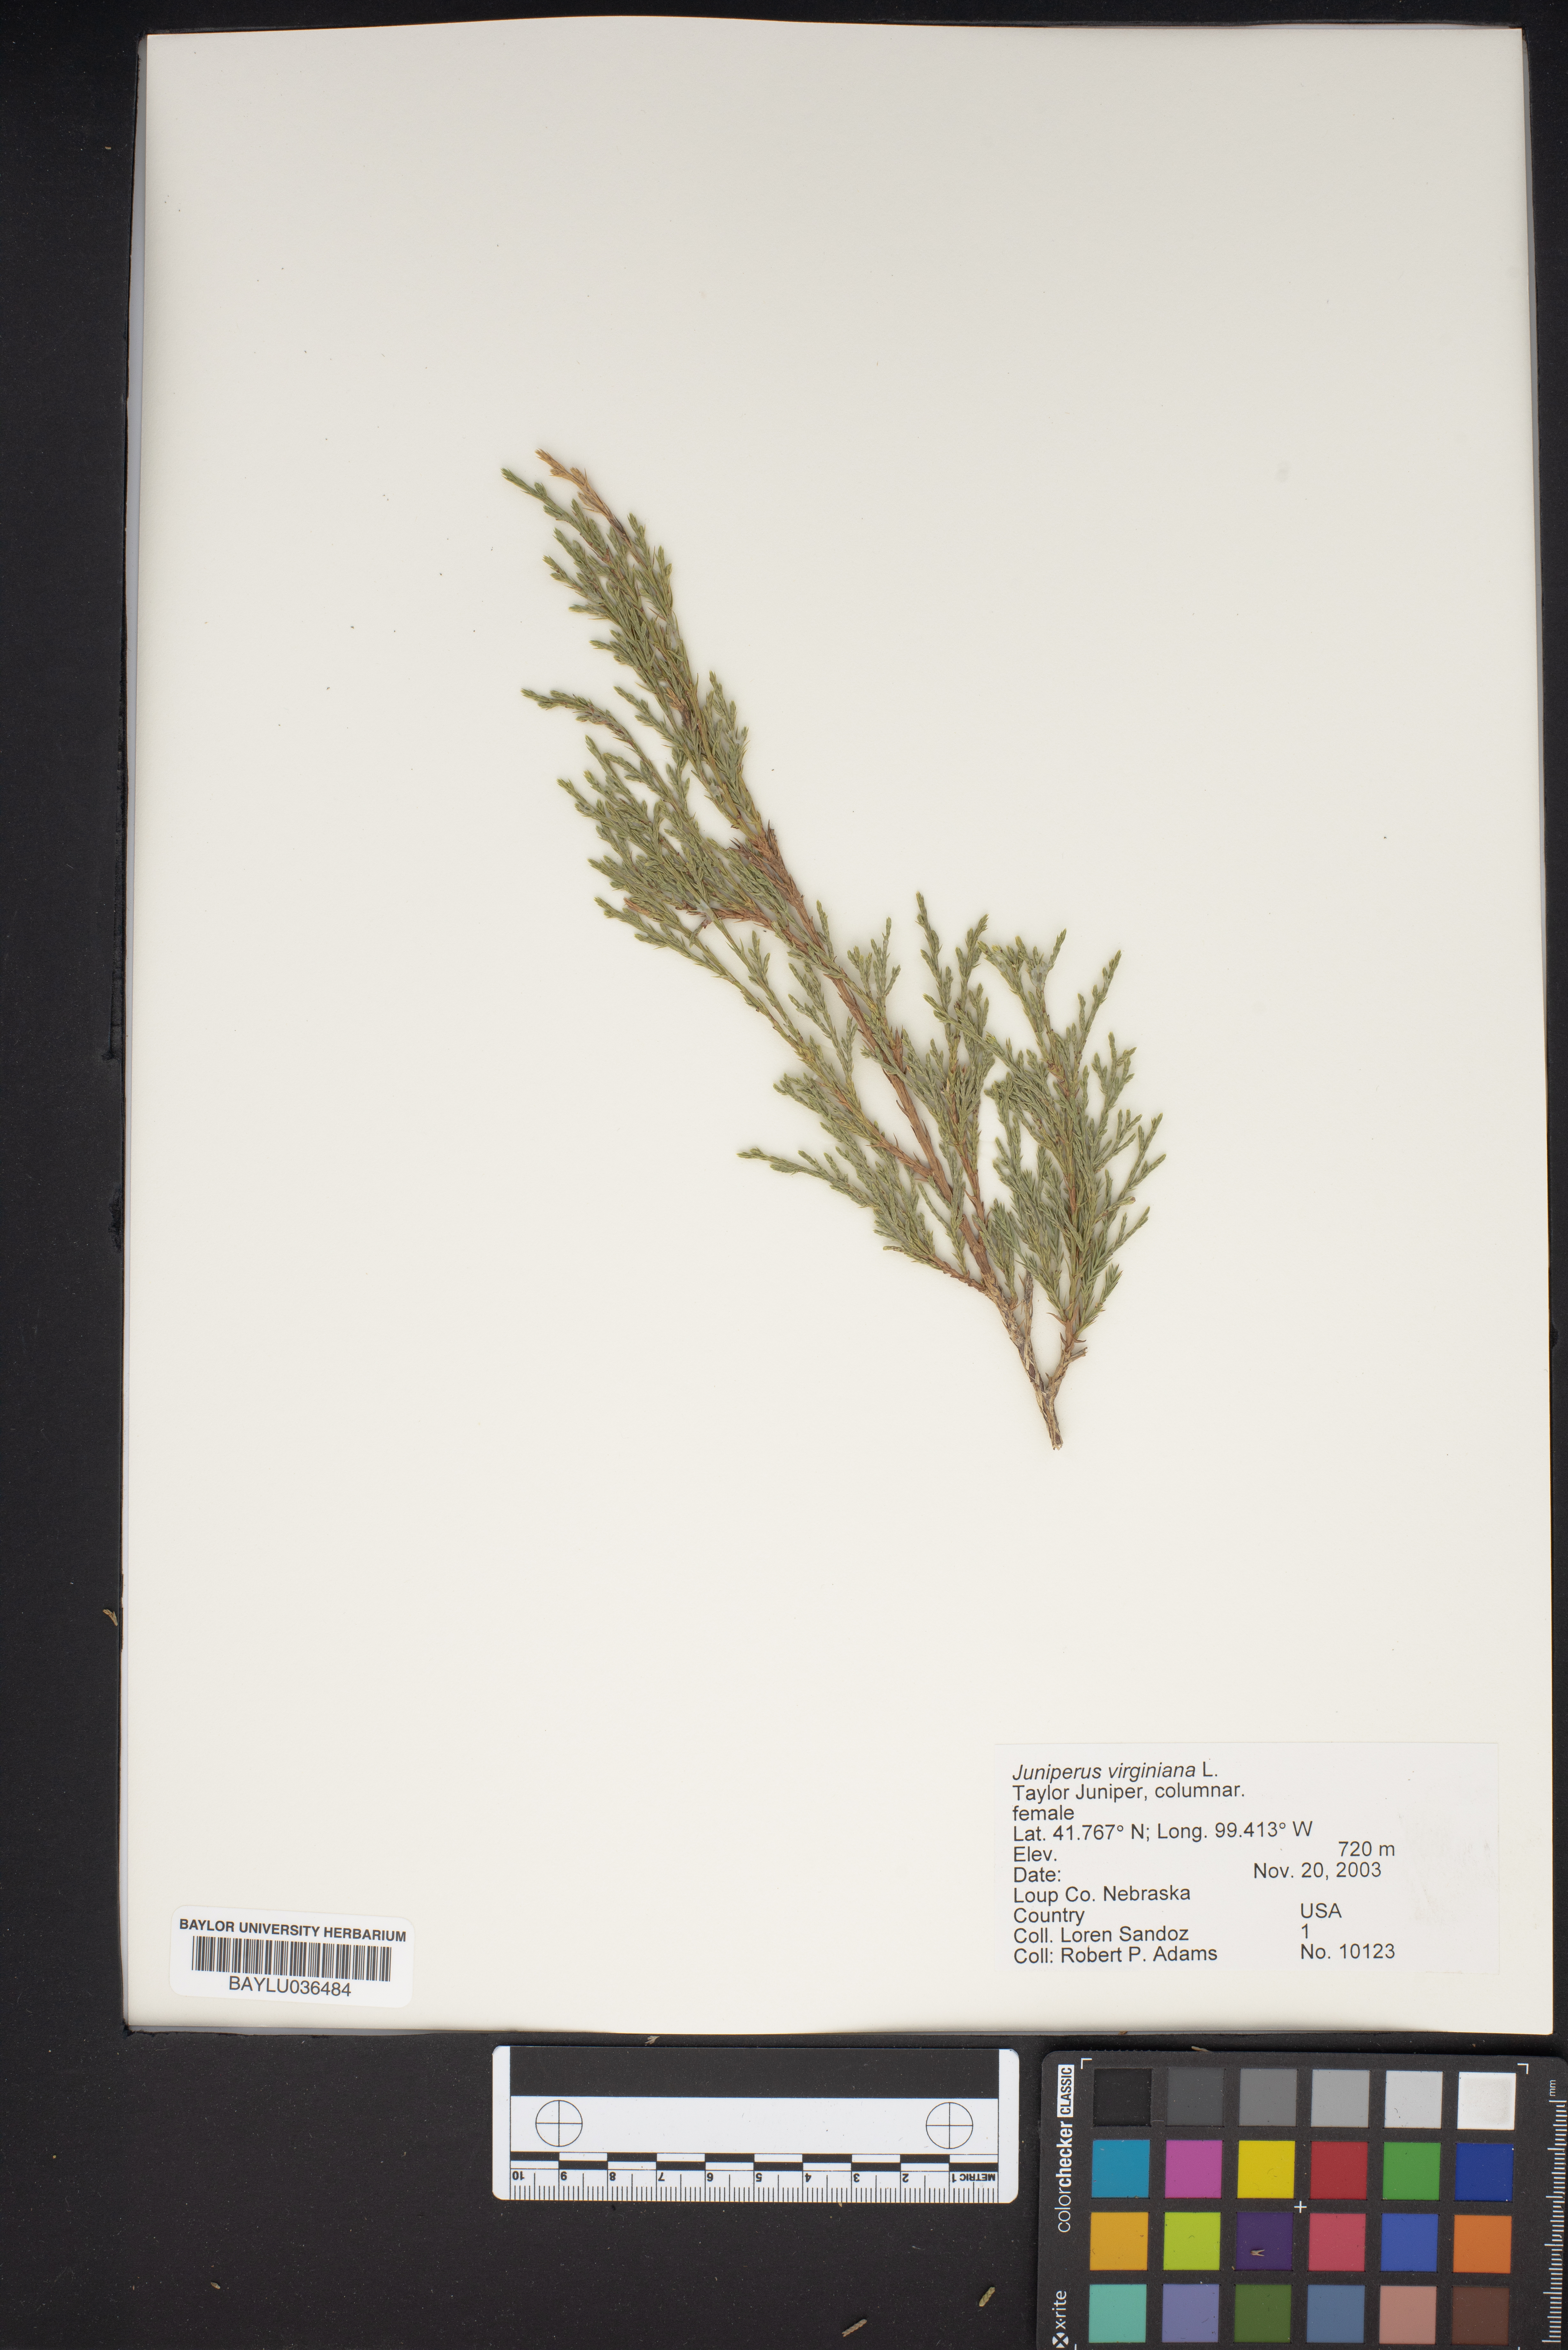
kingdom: Plantae
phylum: Tracheophyta
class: Pinopsida
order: Pinales
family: Cupressaceae
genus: Juniperus
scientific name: Juniperus virginiana
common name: Red juniper
